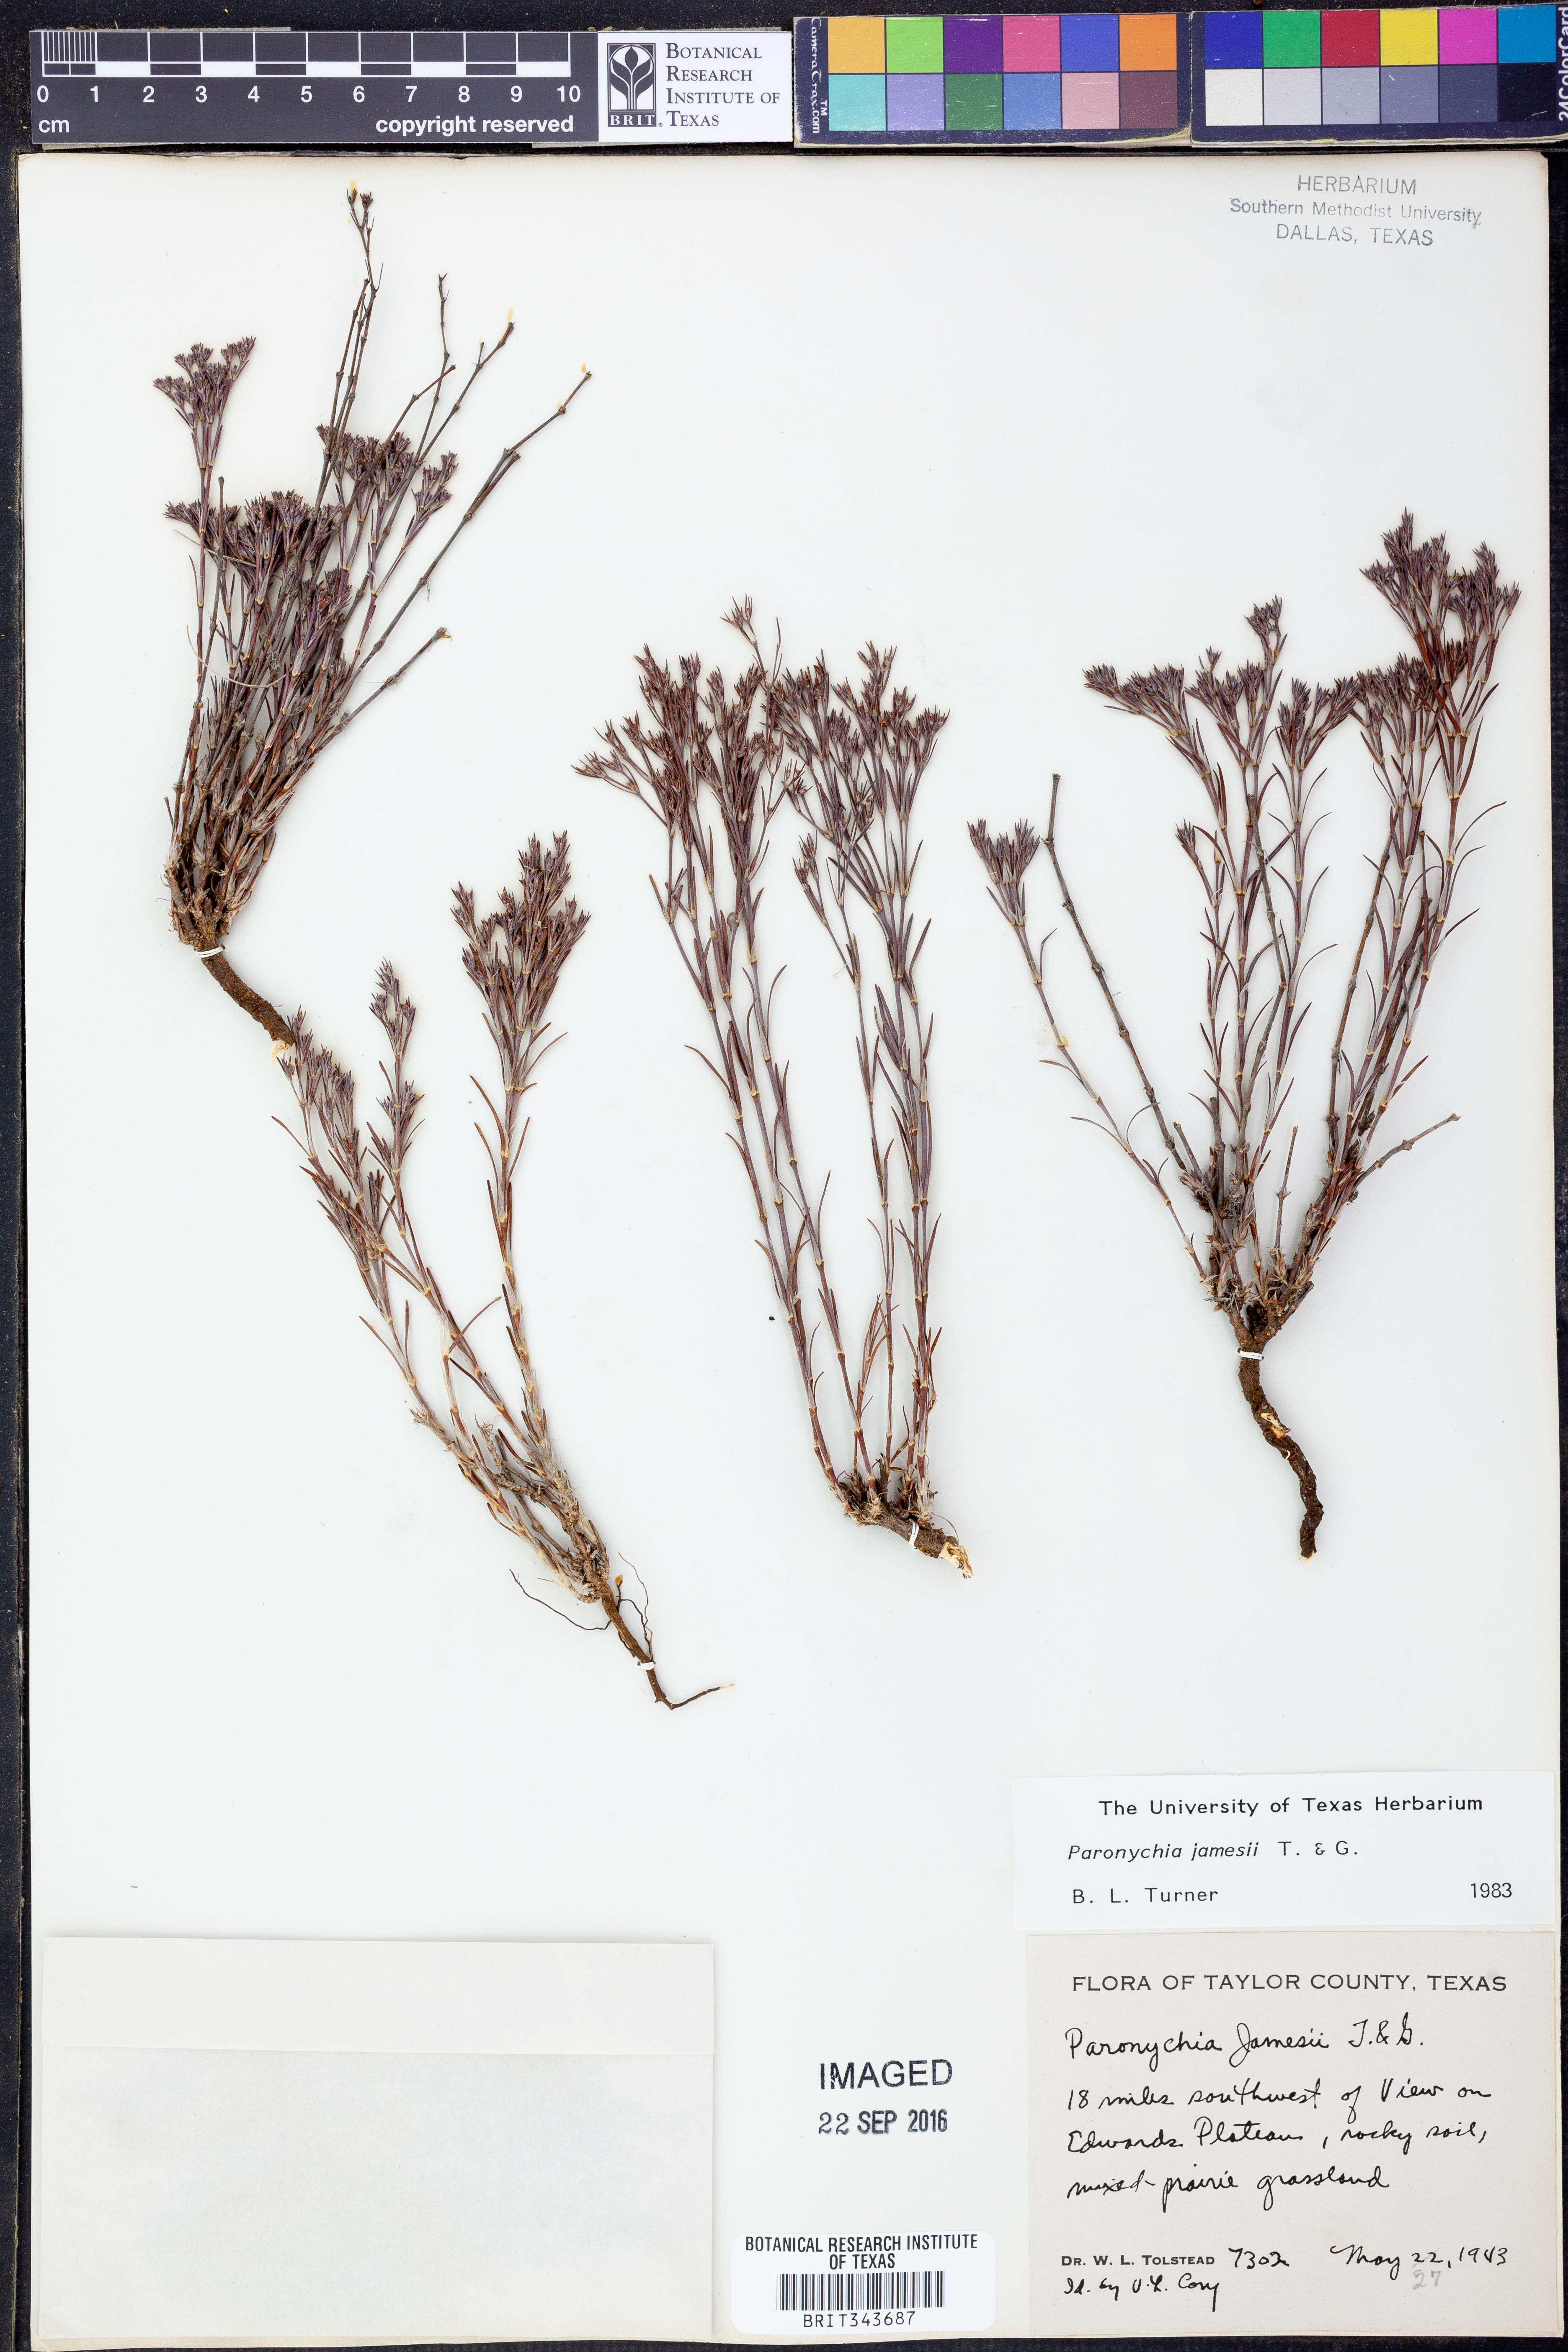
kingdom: Plantae
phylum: Tracheophyta
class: Magnoliopsida
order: Caryophyllales
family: Caryophyllaceae
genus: Paronychia
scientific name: Paronychia jamesii
